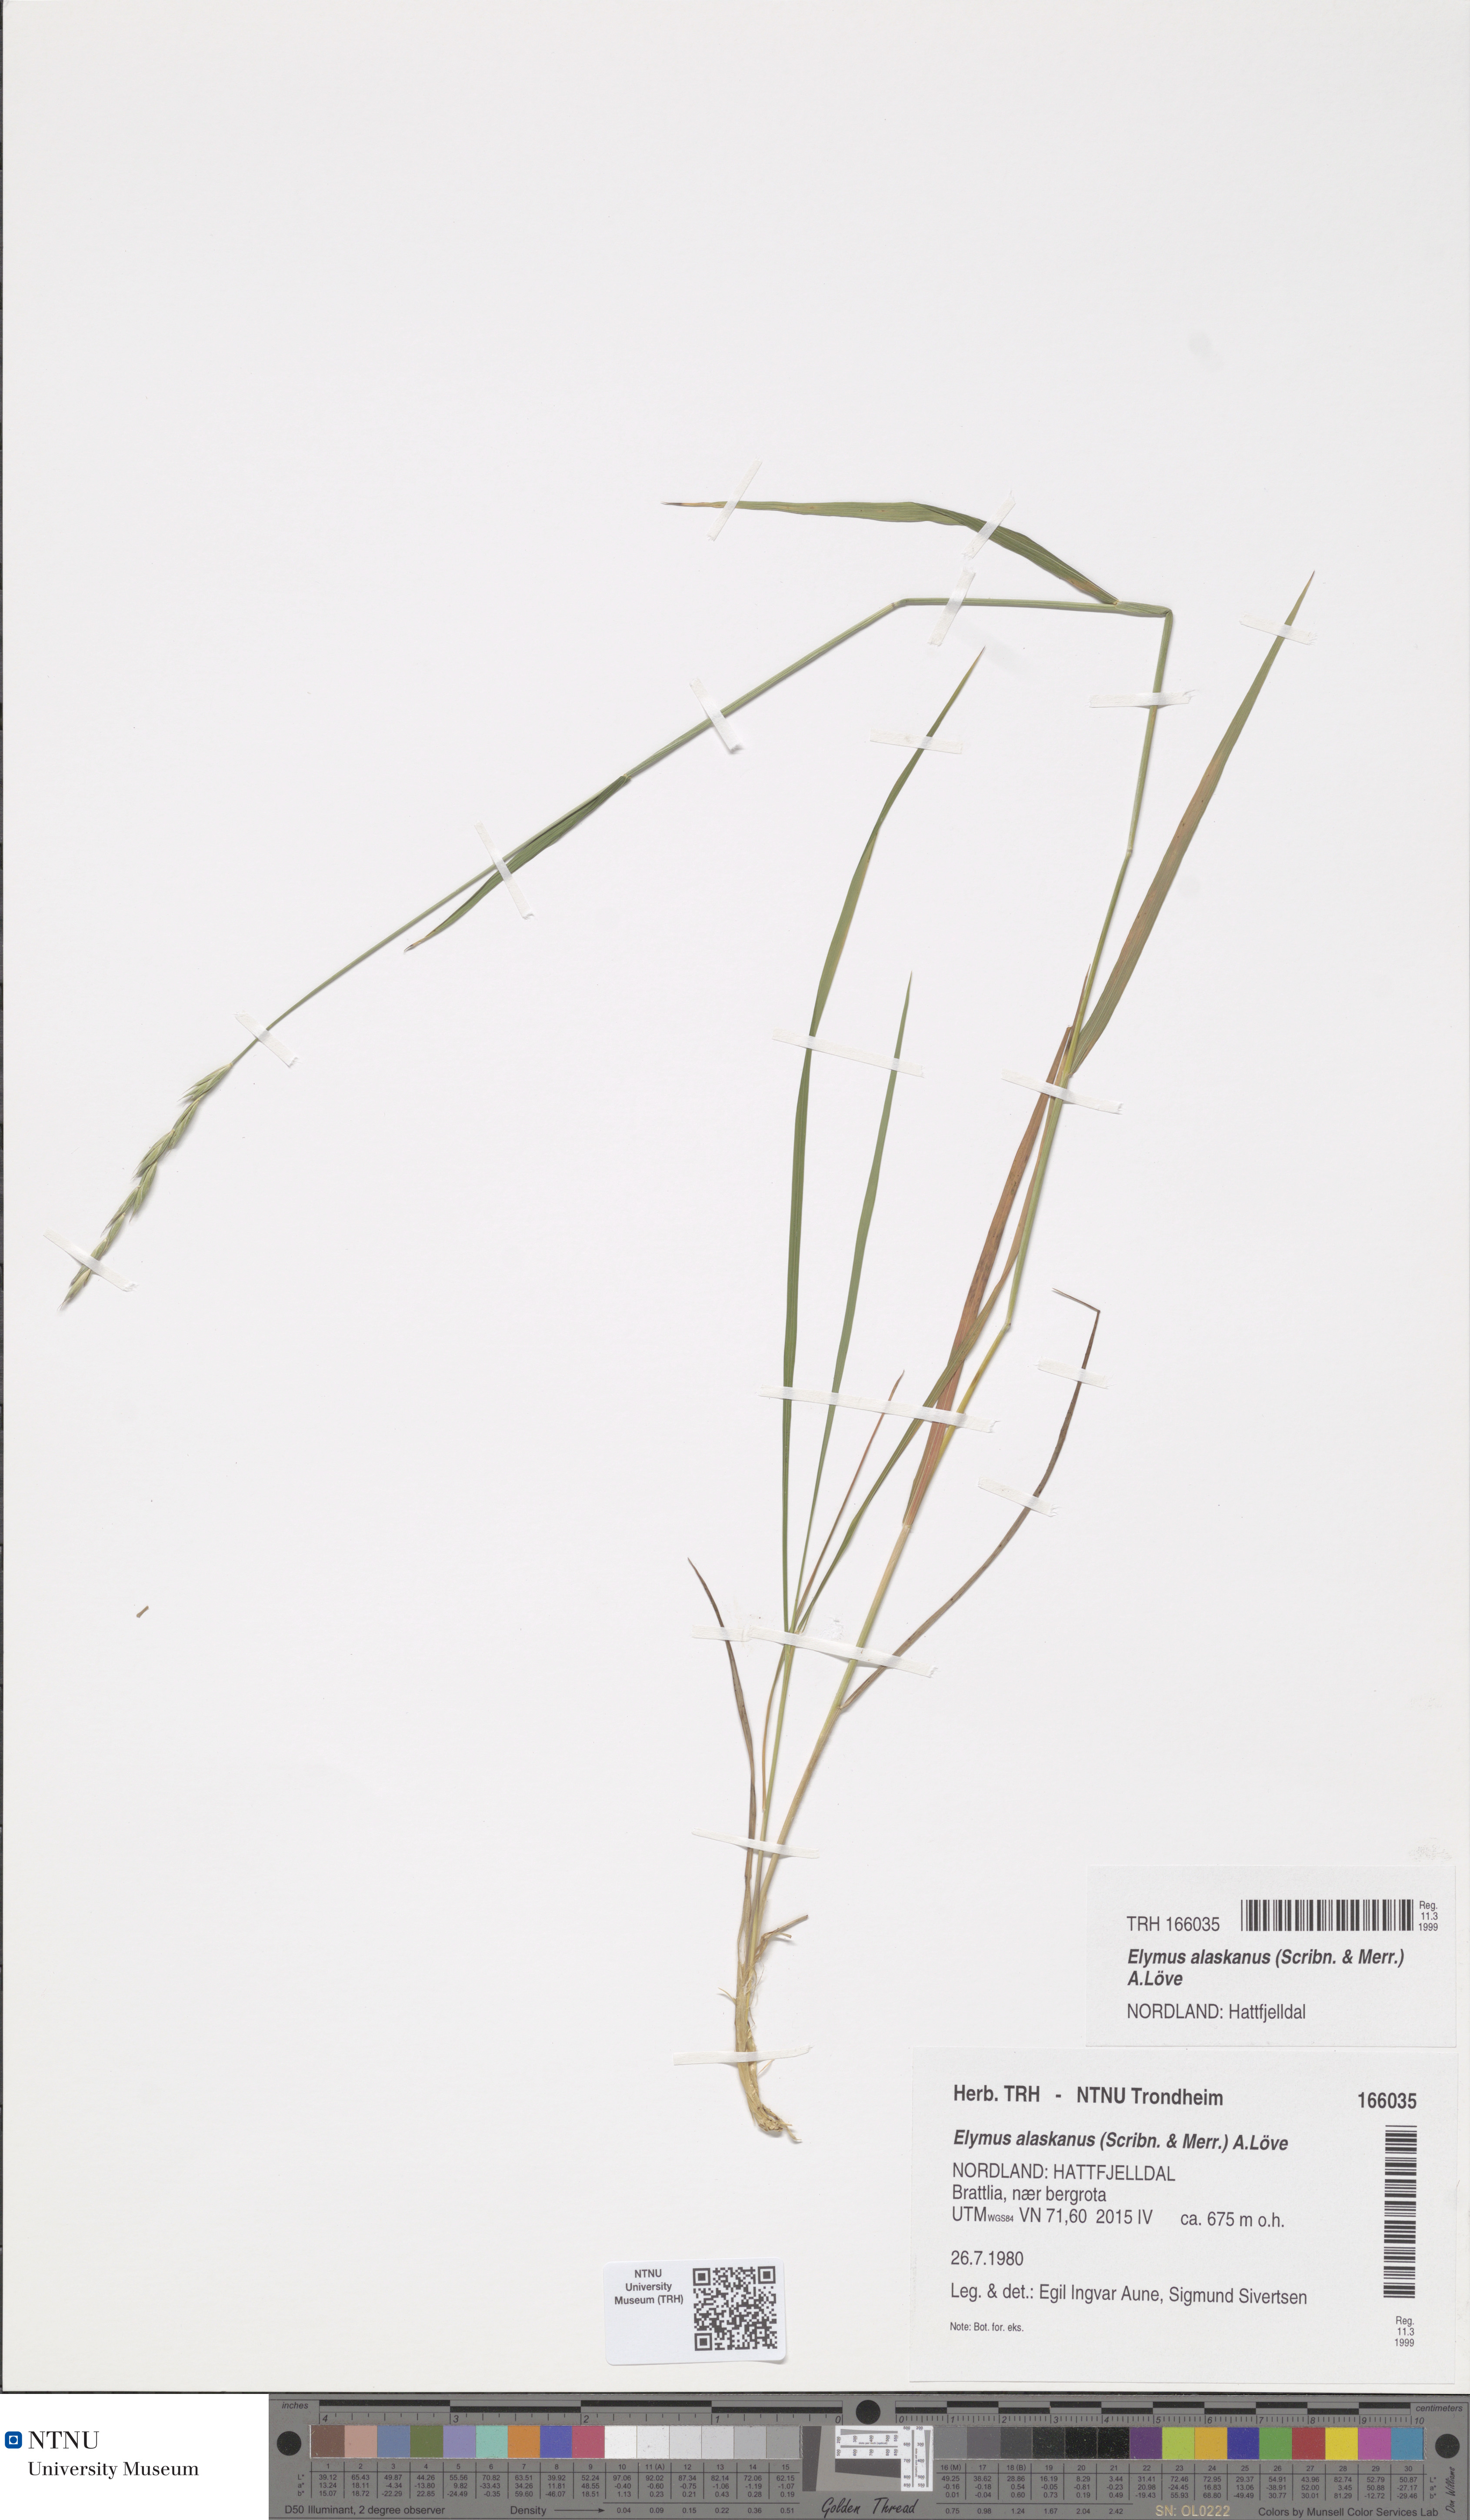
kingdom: Plantae
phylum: Tracheophyta
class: Liliopsida
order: Poales
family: Poaceae
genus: Elymus
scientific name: Elymus alaskanus
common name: Alaska wheatgrass
